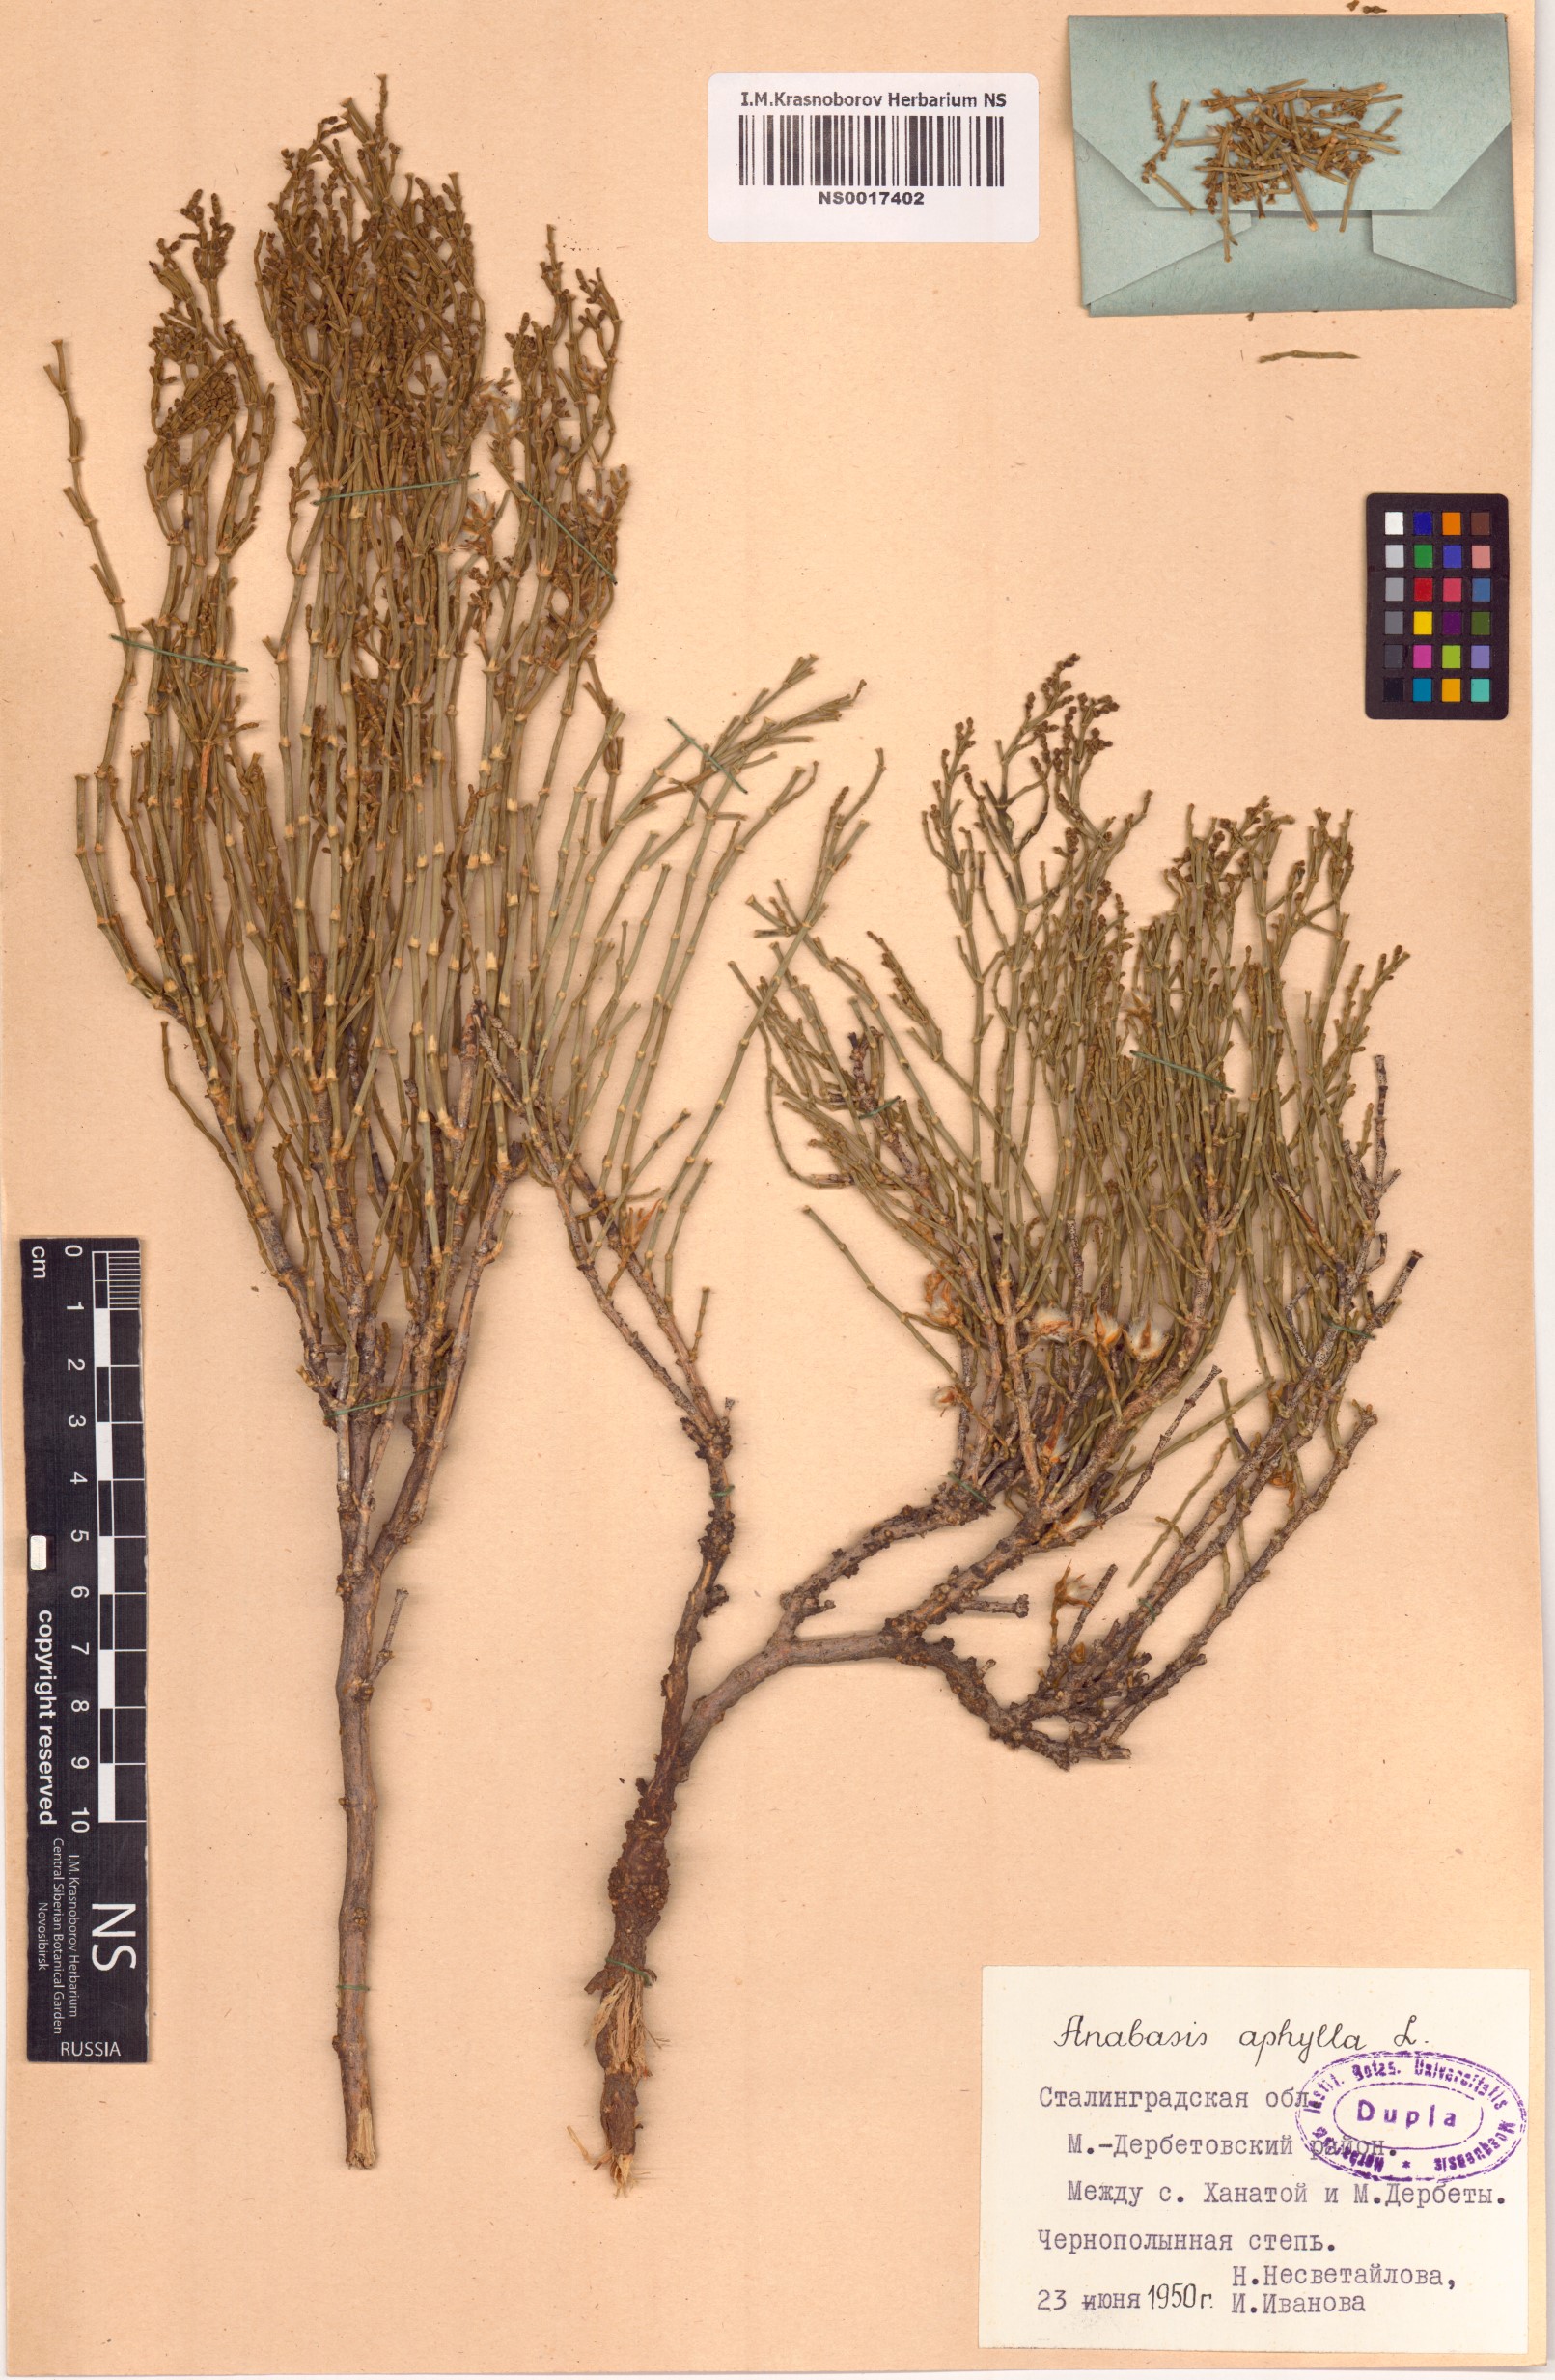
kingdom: Plantae
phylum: Tracheophyta
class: Magnoliopsida
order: Caryophyllales
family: Amaranthaceae
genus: Anabasis
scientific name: Anabasis aphylla
